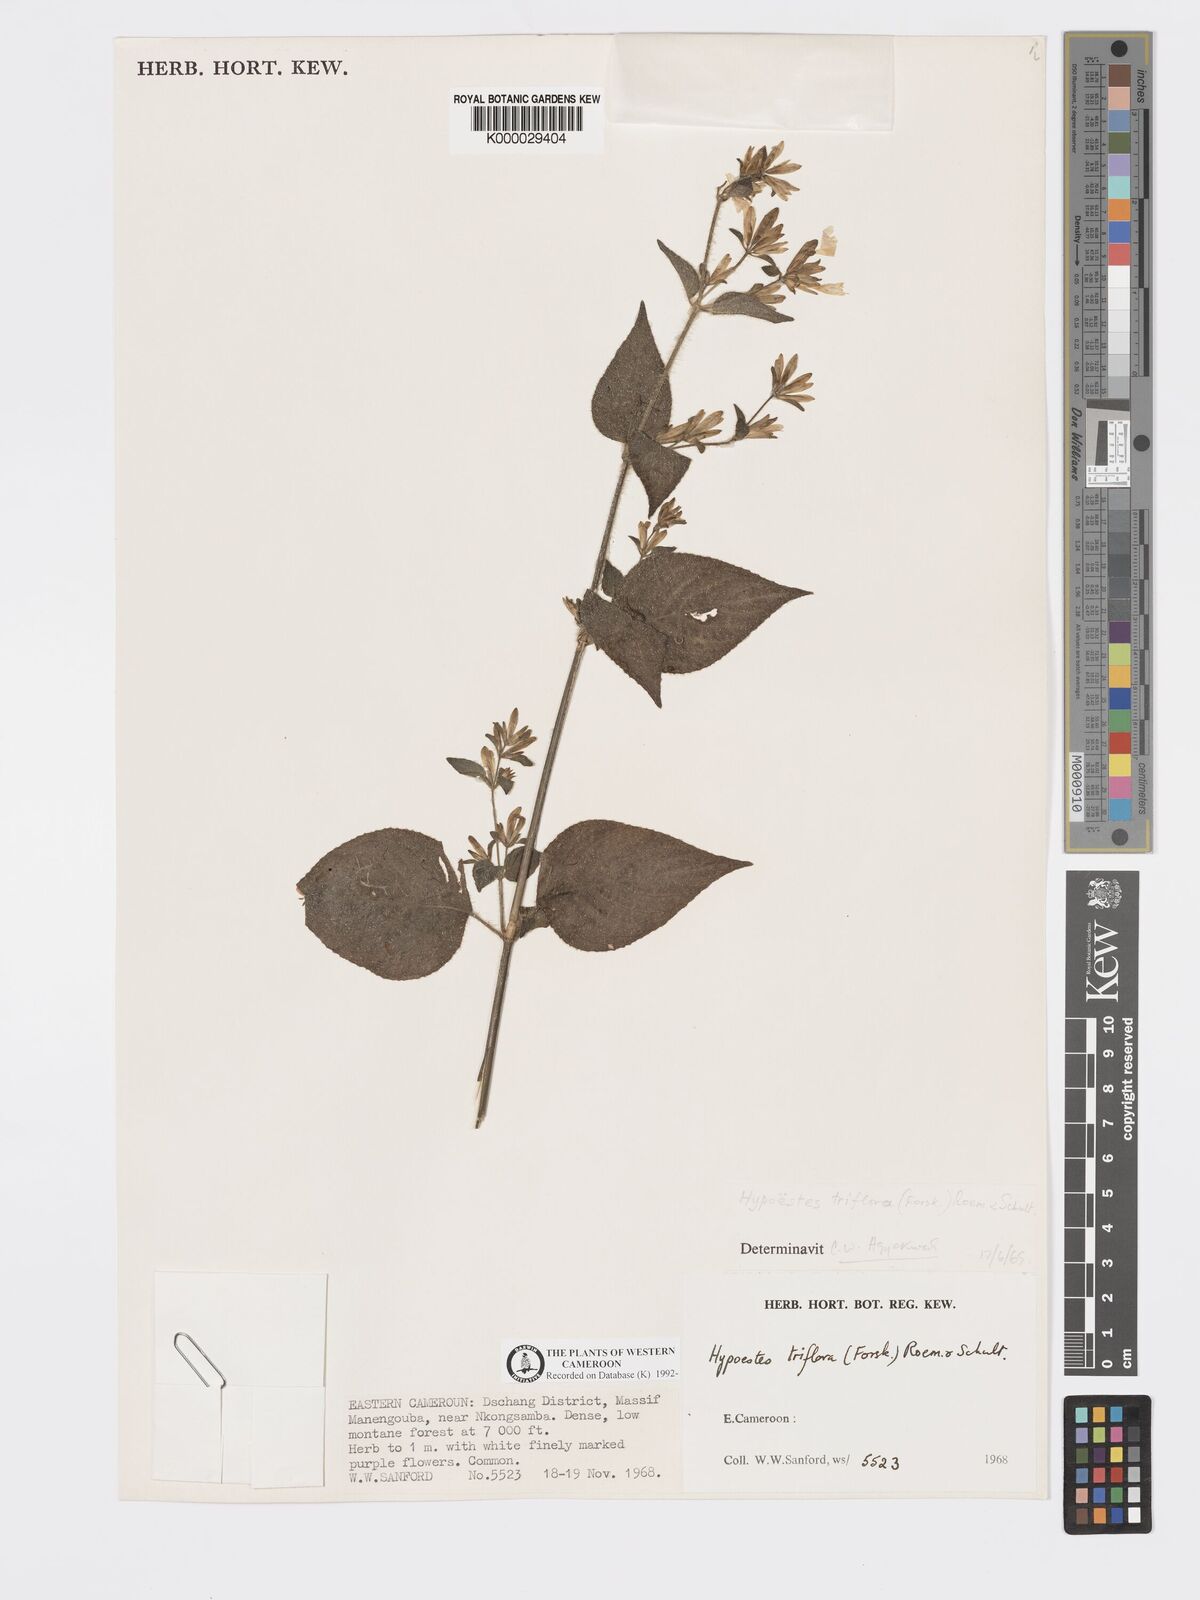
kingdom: Plantae
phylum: Tracheophyta
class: Magnoliopsida
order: Lamiales
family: Acanthaceae
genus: Hypoestes
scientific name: Hypoestes triflora
